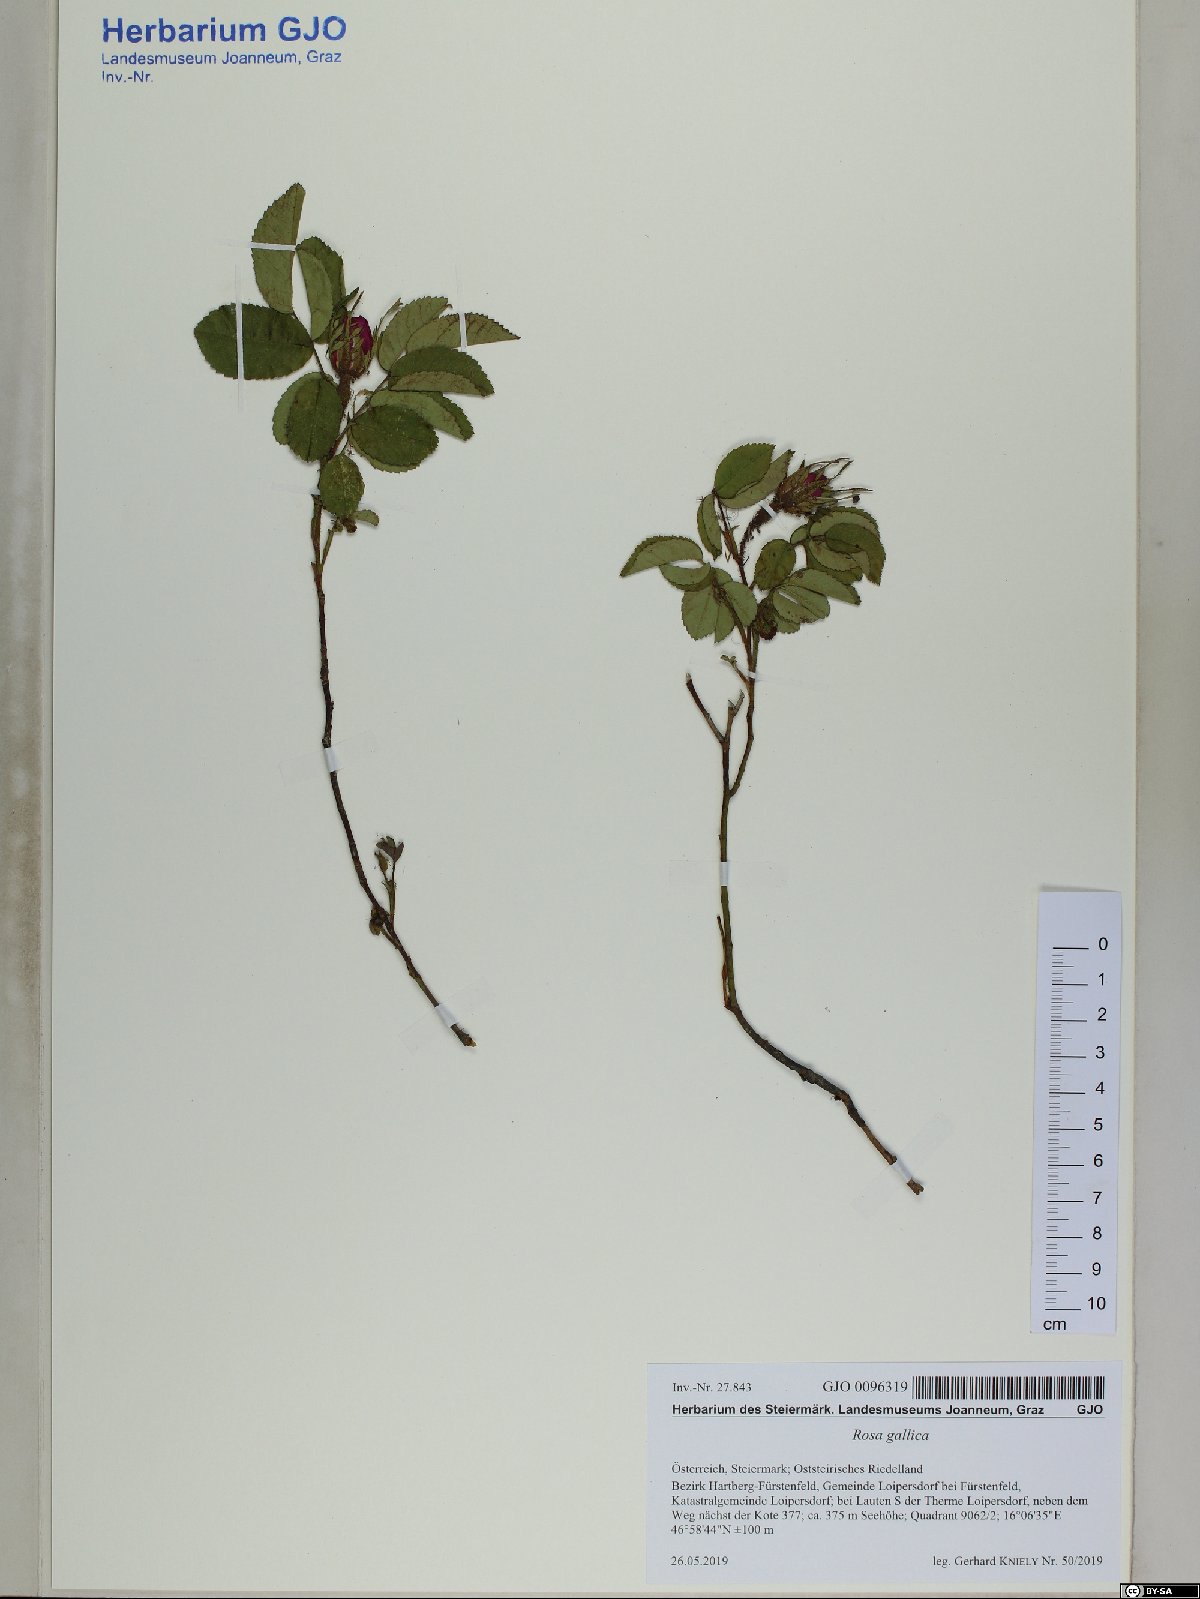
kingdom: Plantae
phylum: Tracheophyta
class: Magnoliopsida
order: Rosales
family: Rosaceae
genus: Rosa
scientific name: Rosa gallica
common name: French rose
